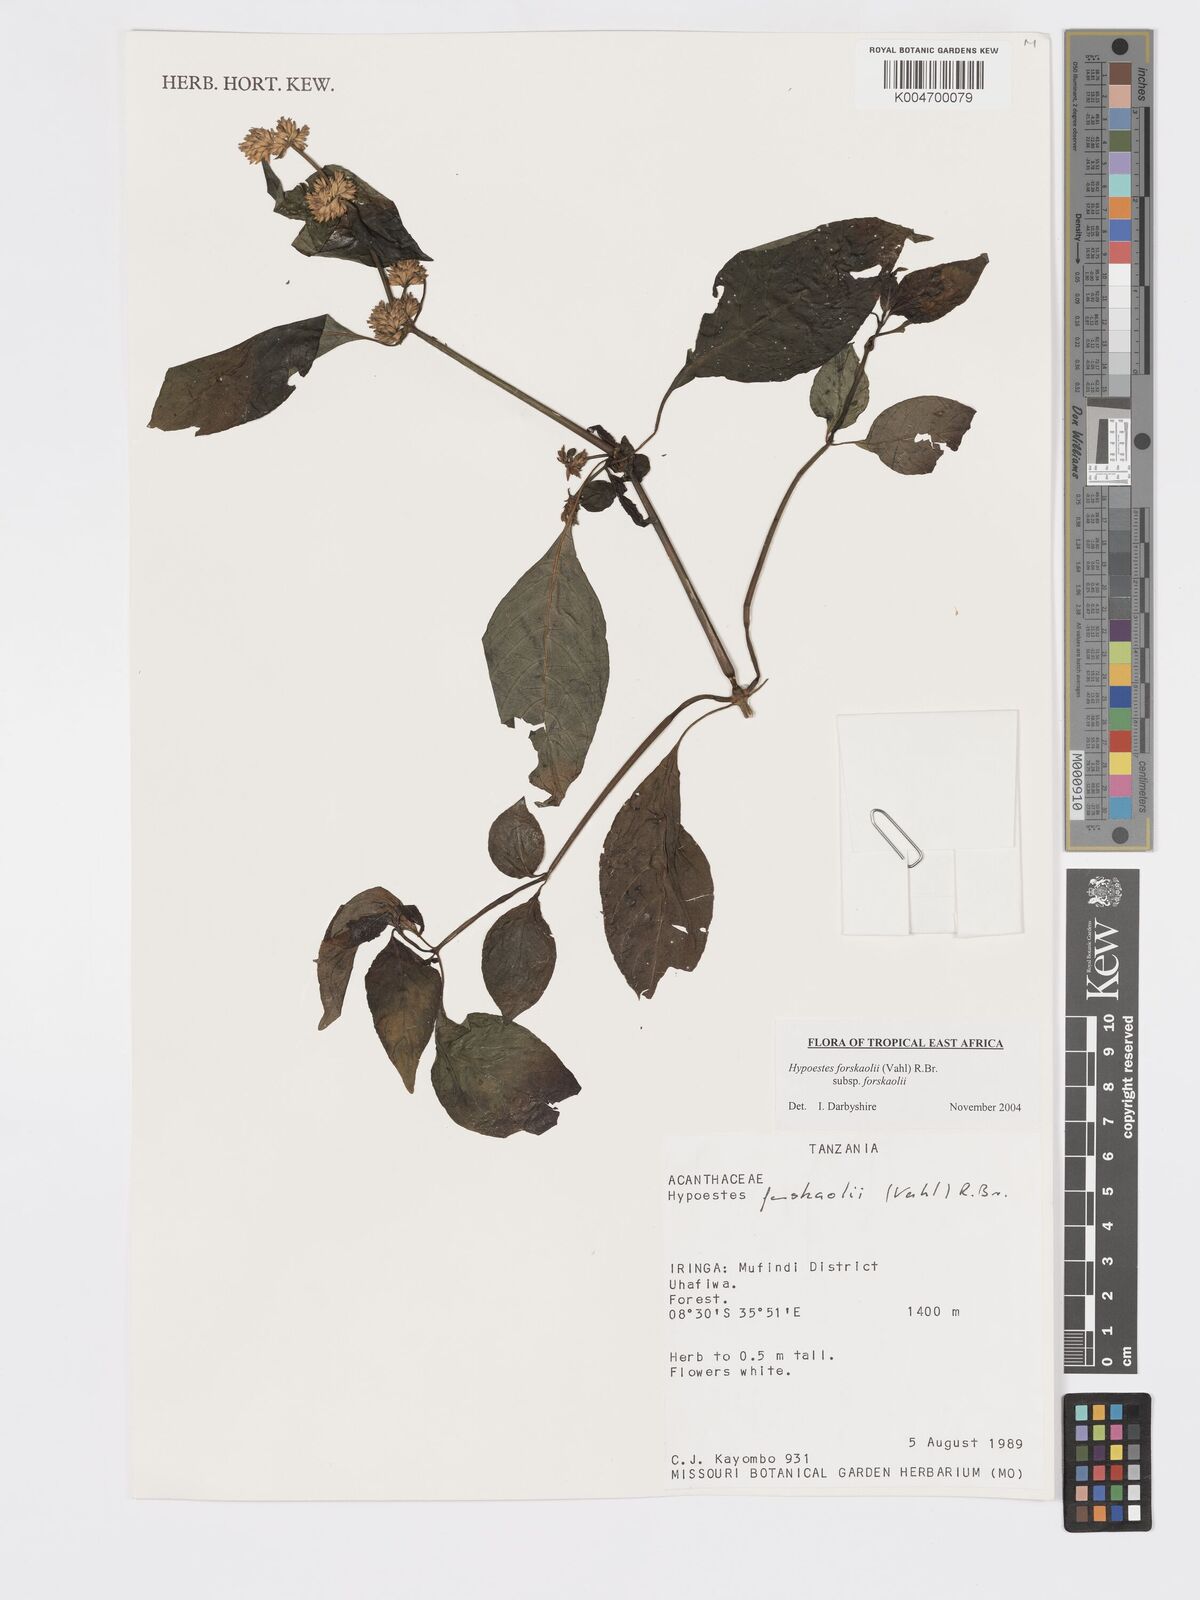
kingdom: Plantae
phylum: Tracheophyta
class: Magnoliopsida
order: Lamiales
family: Acanthaceae
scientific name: Acanthaceae
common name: Acanthaceae
